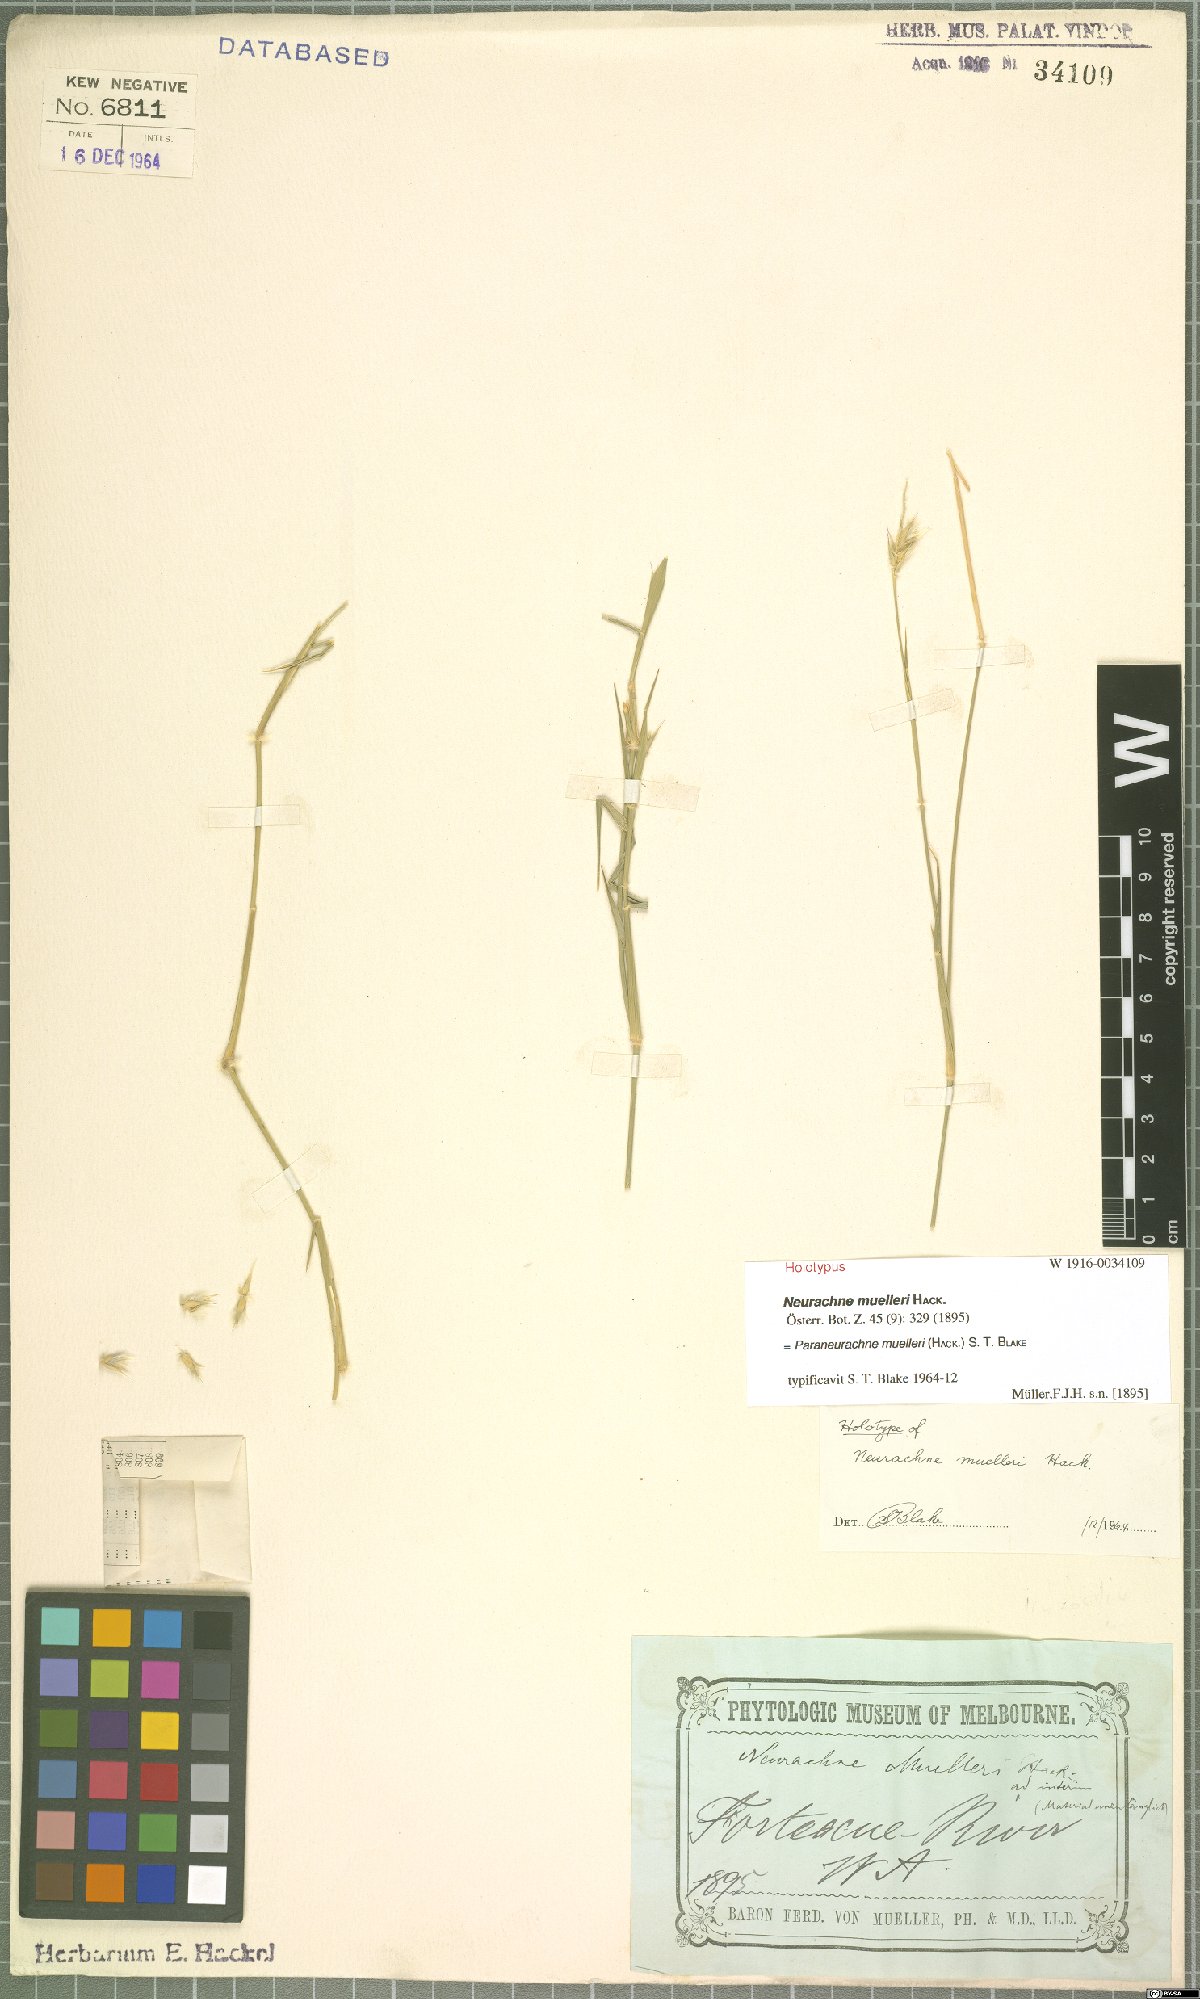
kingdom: Plantae
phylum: Tracheophyta
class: Liliopsida
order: Poales
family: Poaceae
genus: Neurachne
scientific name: Neurachne muelleri
